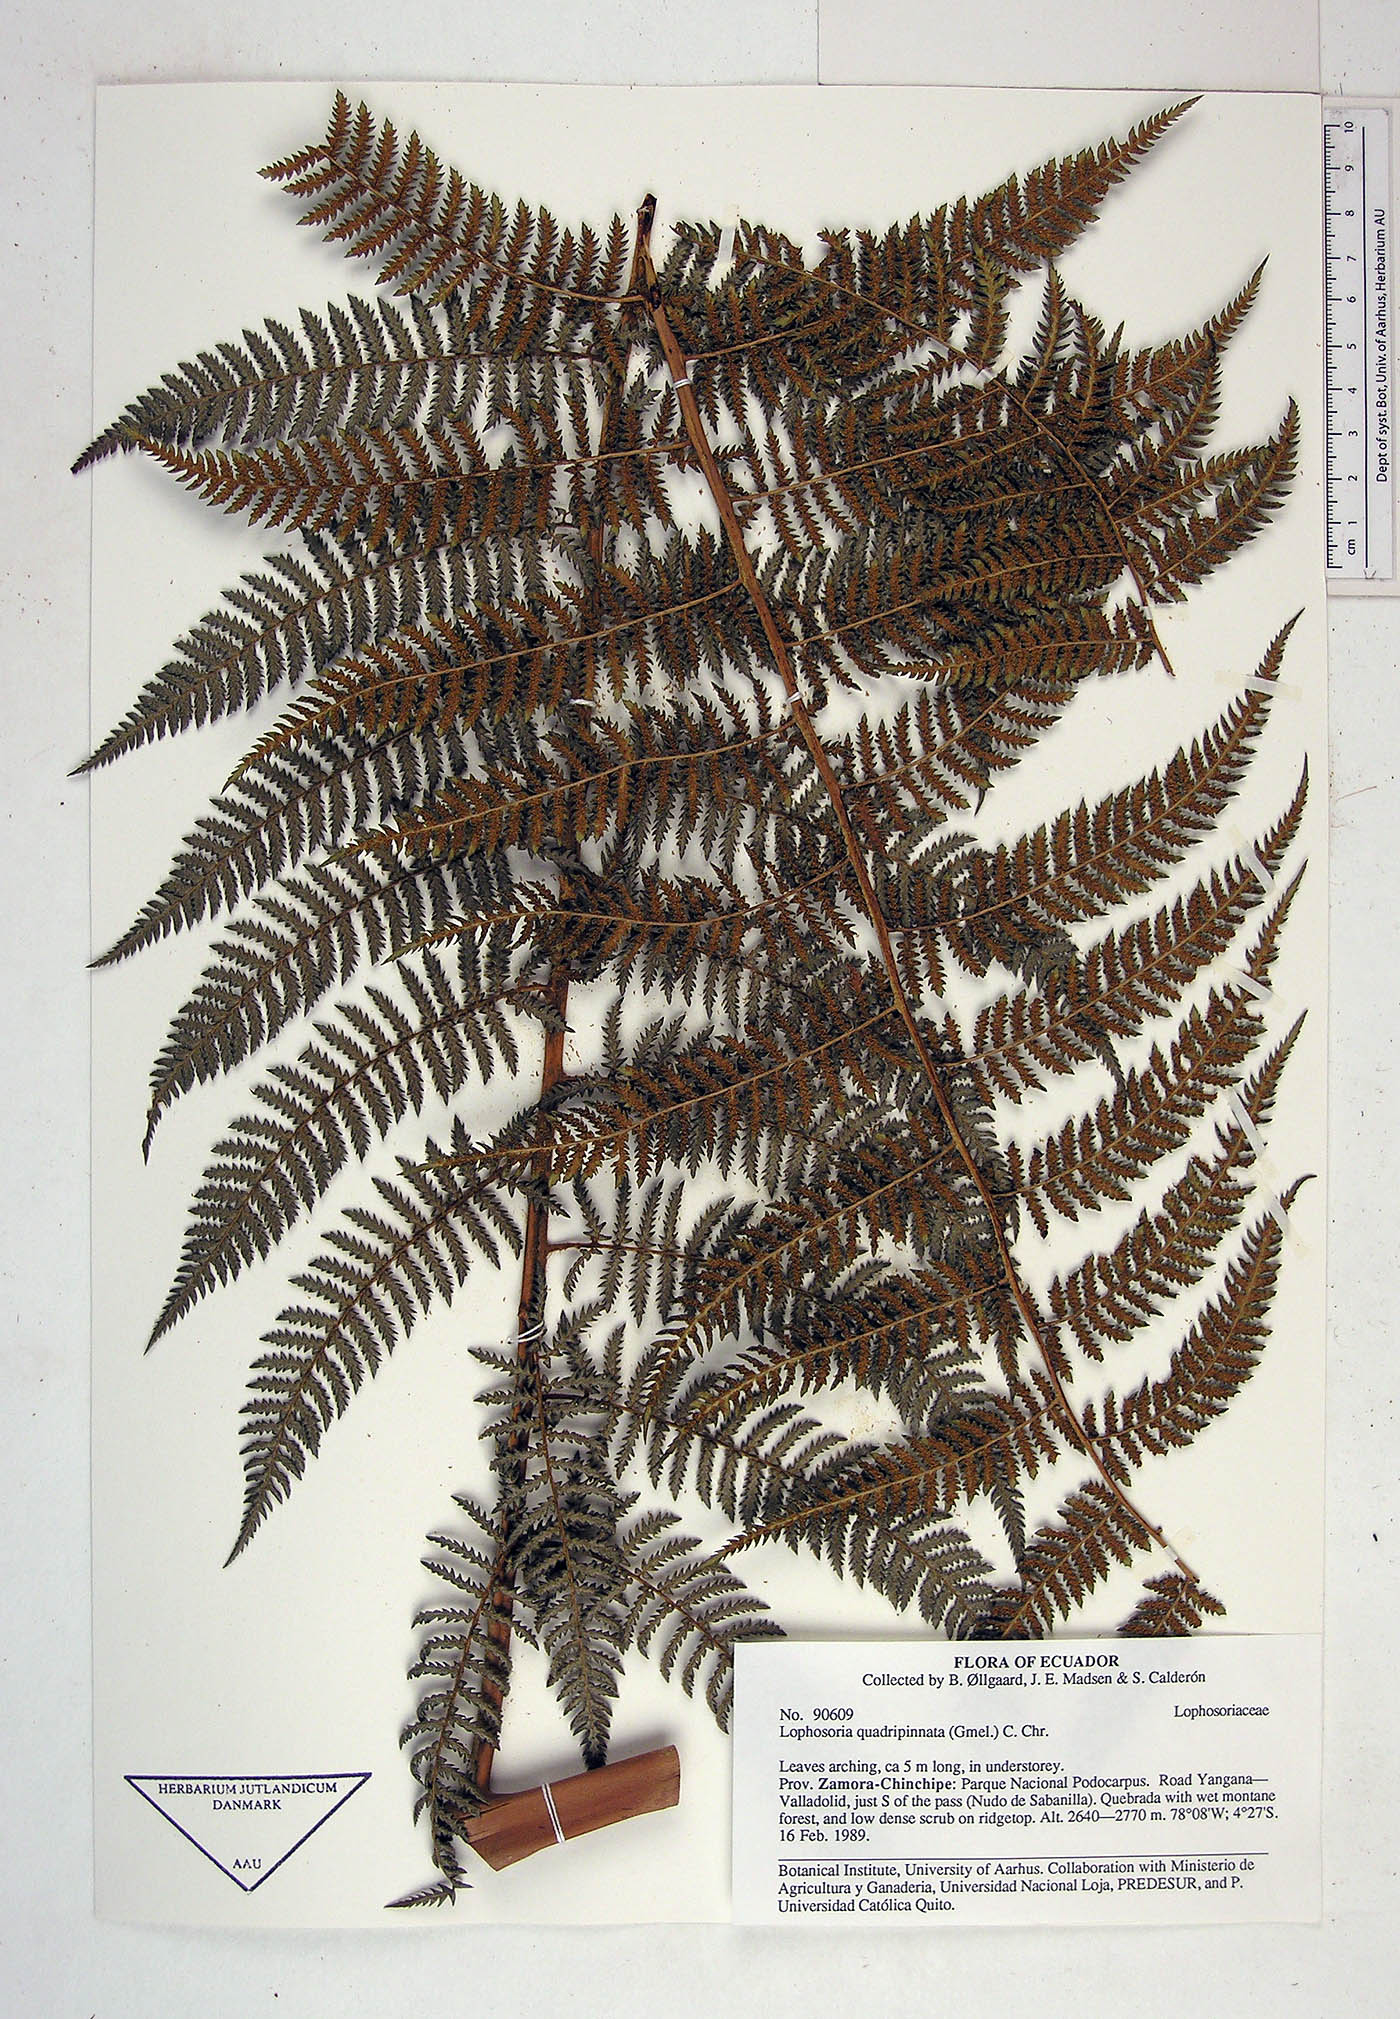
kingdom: Plantae
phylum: Tracheophyta
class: Polypodiopsida
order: Cyatheales
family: Dicksoniaceae
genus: Lophosoria
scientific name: Lophosoria quadripinnata
